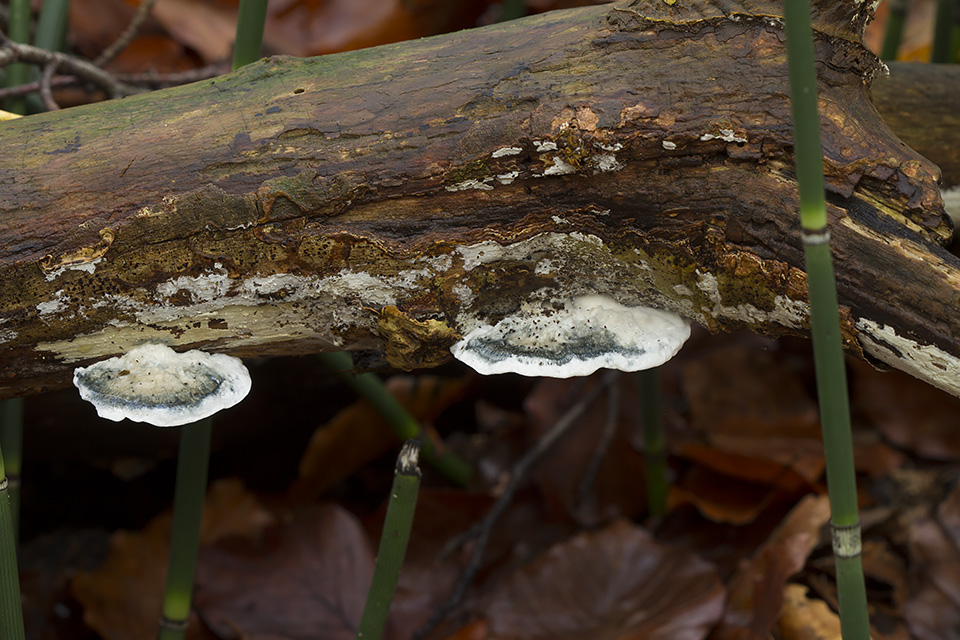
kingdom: Fungi
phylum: Basidiomycota
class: Agaricomycetes
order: Polyporales
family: Polyporaceae
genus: Cyanosporus
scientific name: Cyanosporus alni
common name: blegblå kødporesvamp
